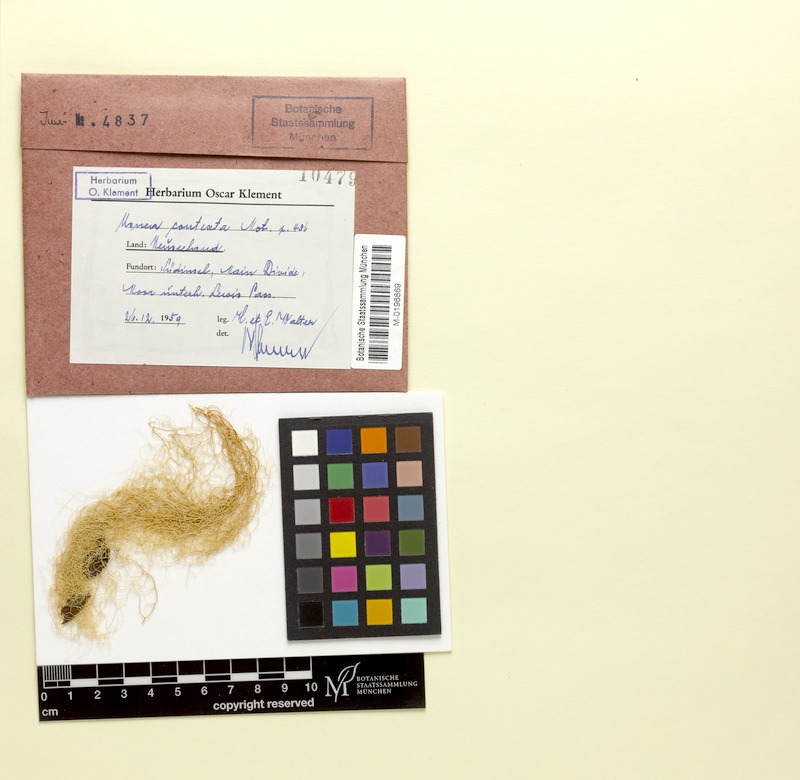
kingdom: Fungi
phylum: Ascomycota
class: Lecanoromycetes
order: Lecanorales
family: Parmeliaceae
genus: Usnea
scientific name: Usnea contexta
